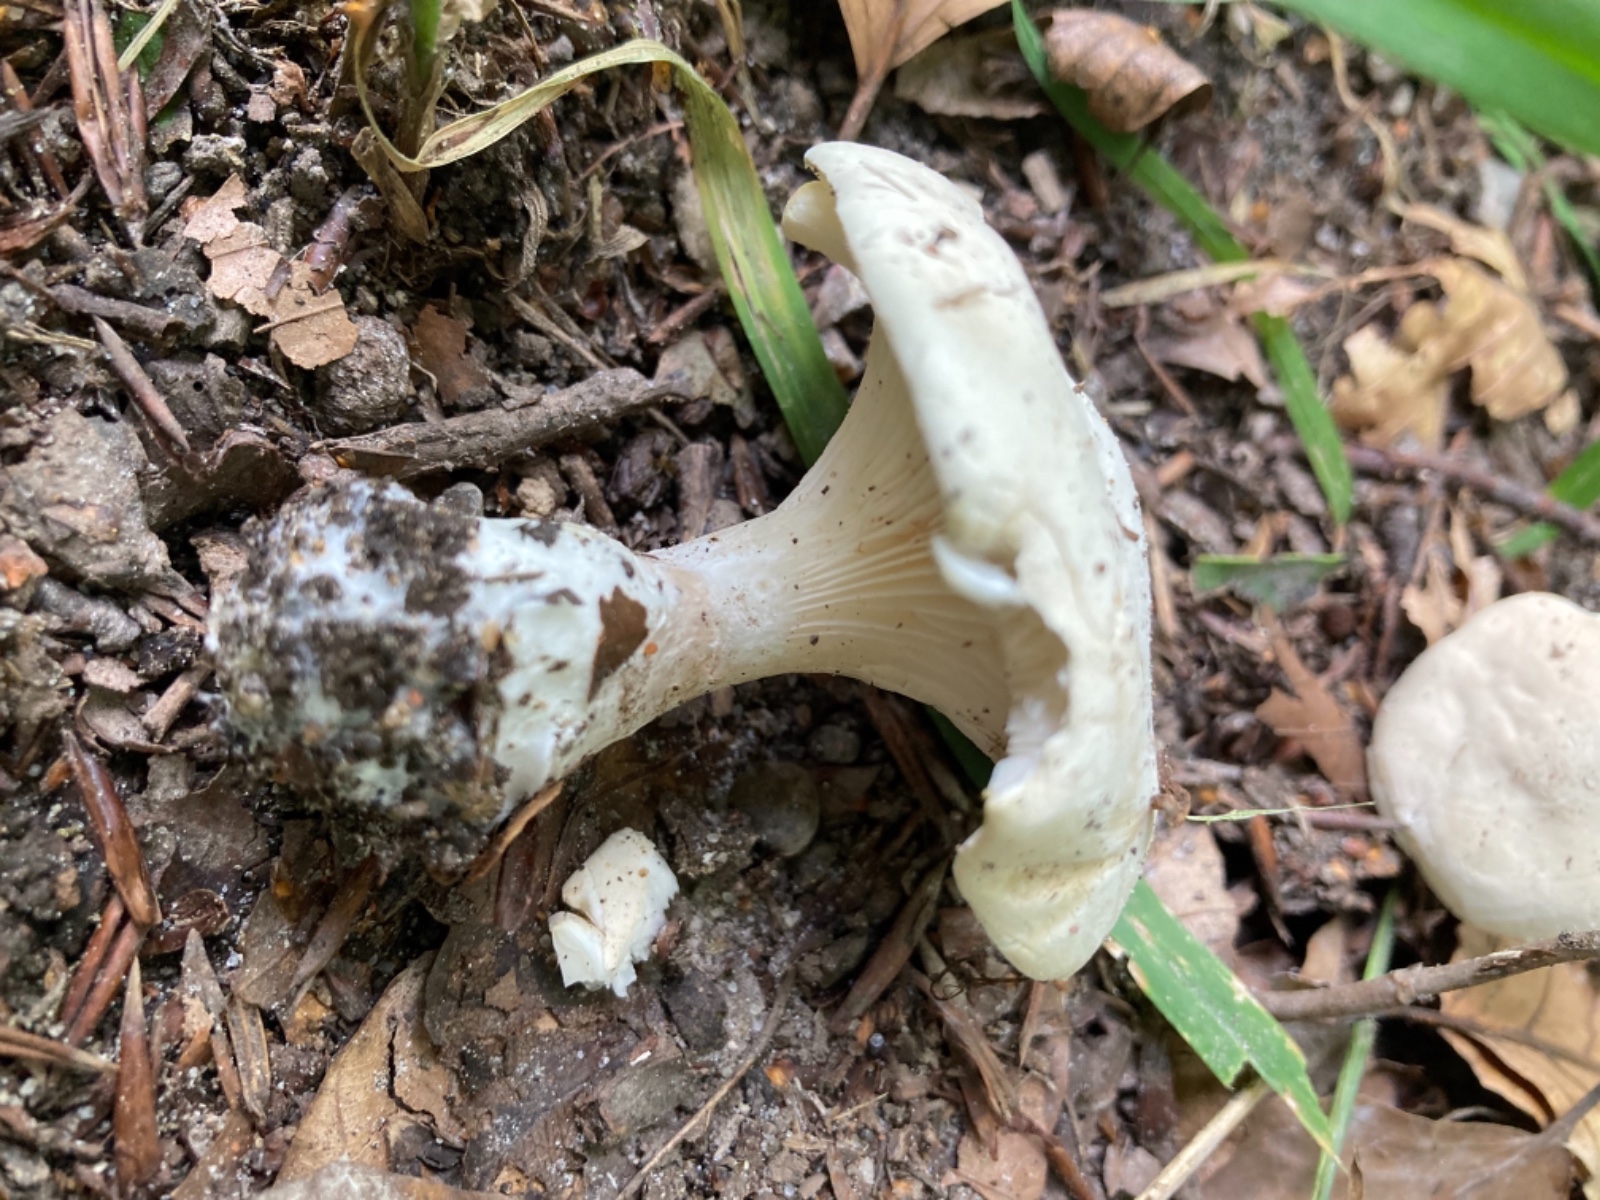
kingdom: Fungi
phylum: Basidiomycota
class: Agaricomycetes
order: Agaricales
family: Entolomataceae
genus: Clitopilus
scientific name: Clitopilus prunulus
